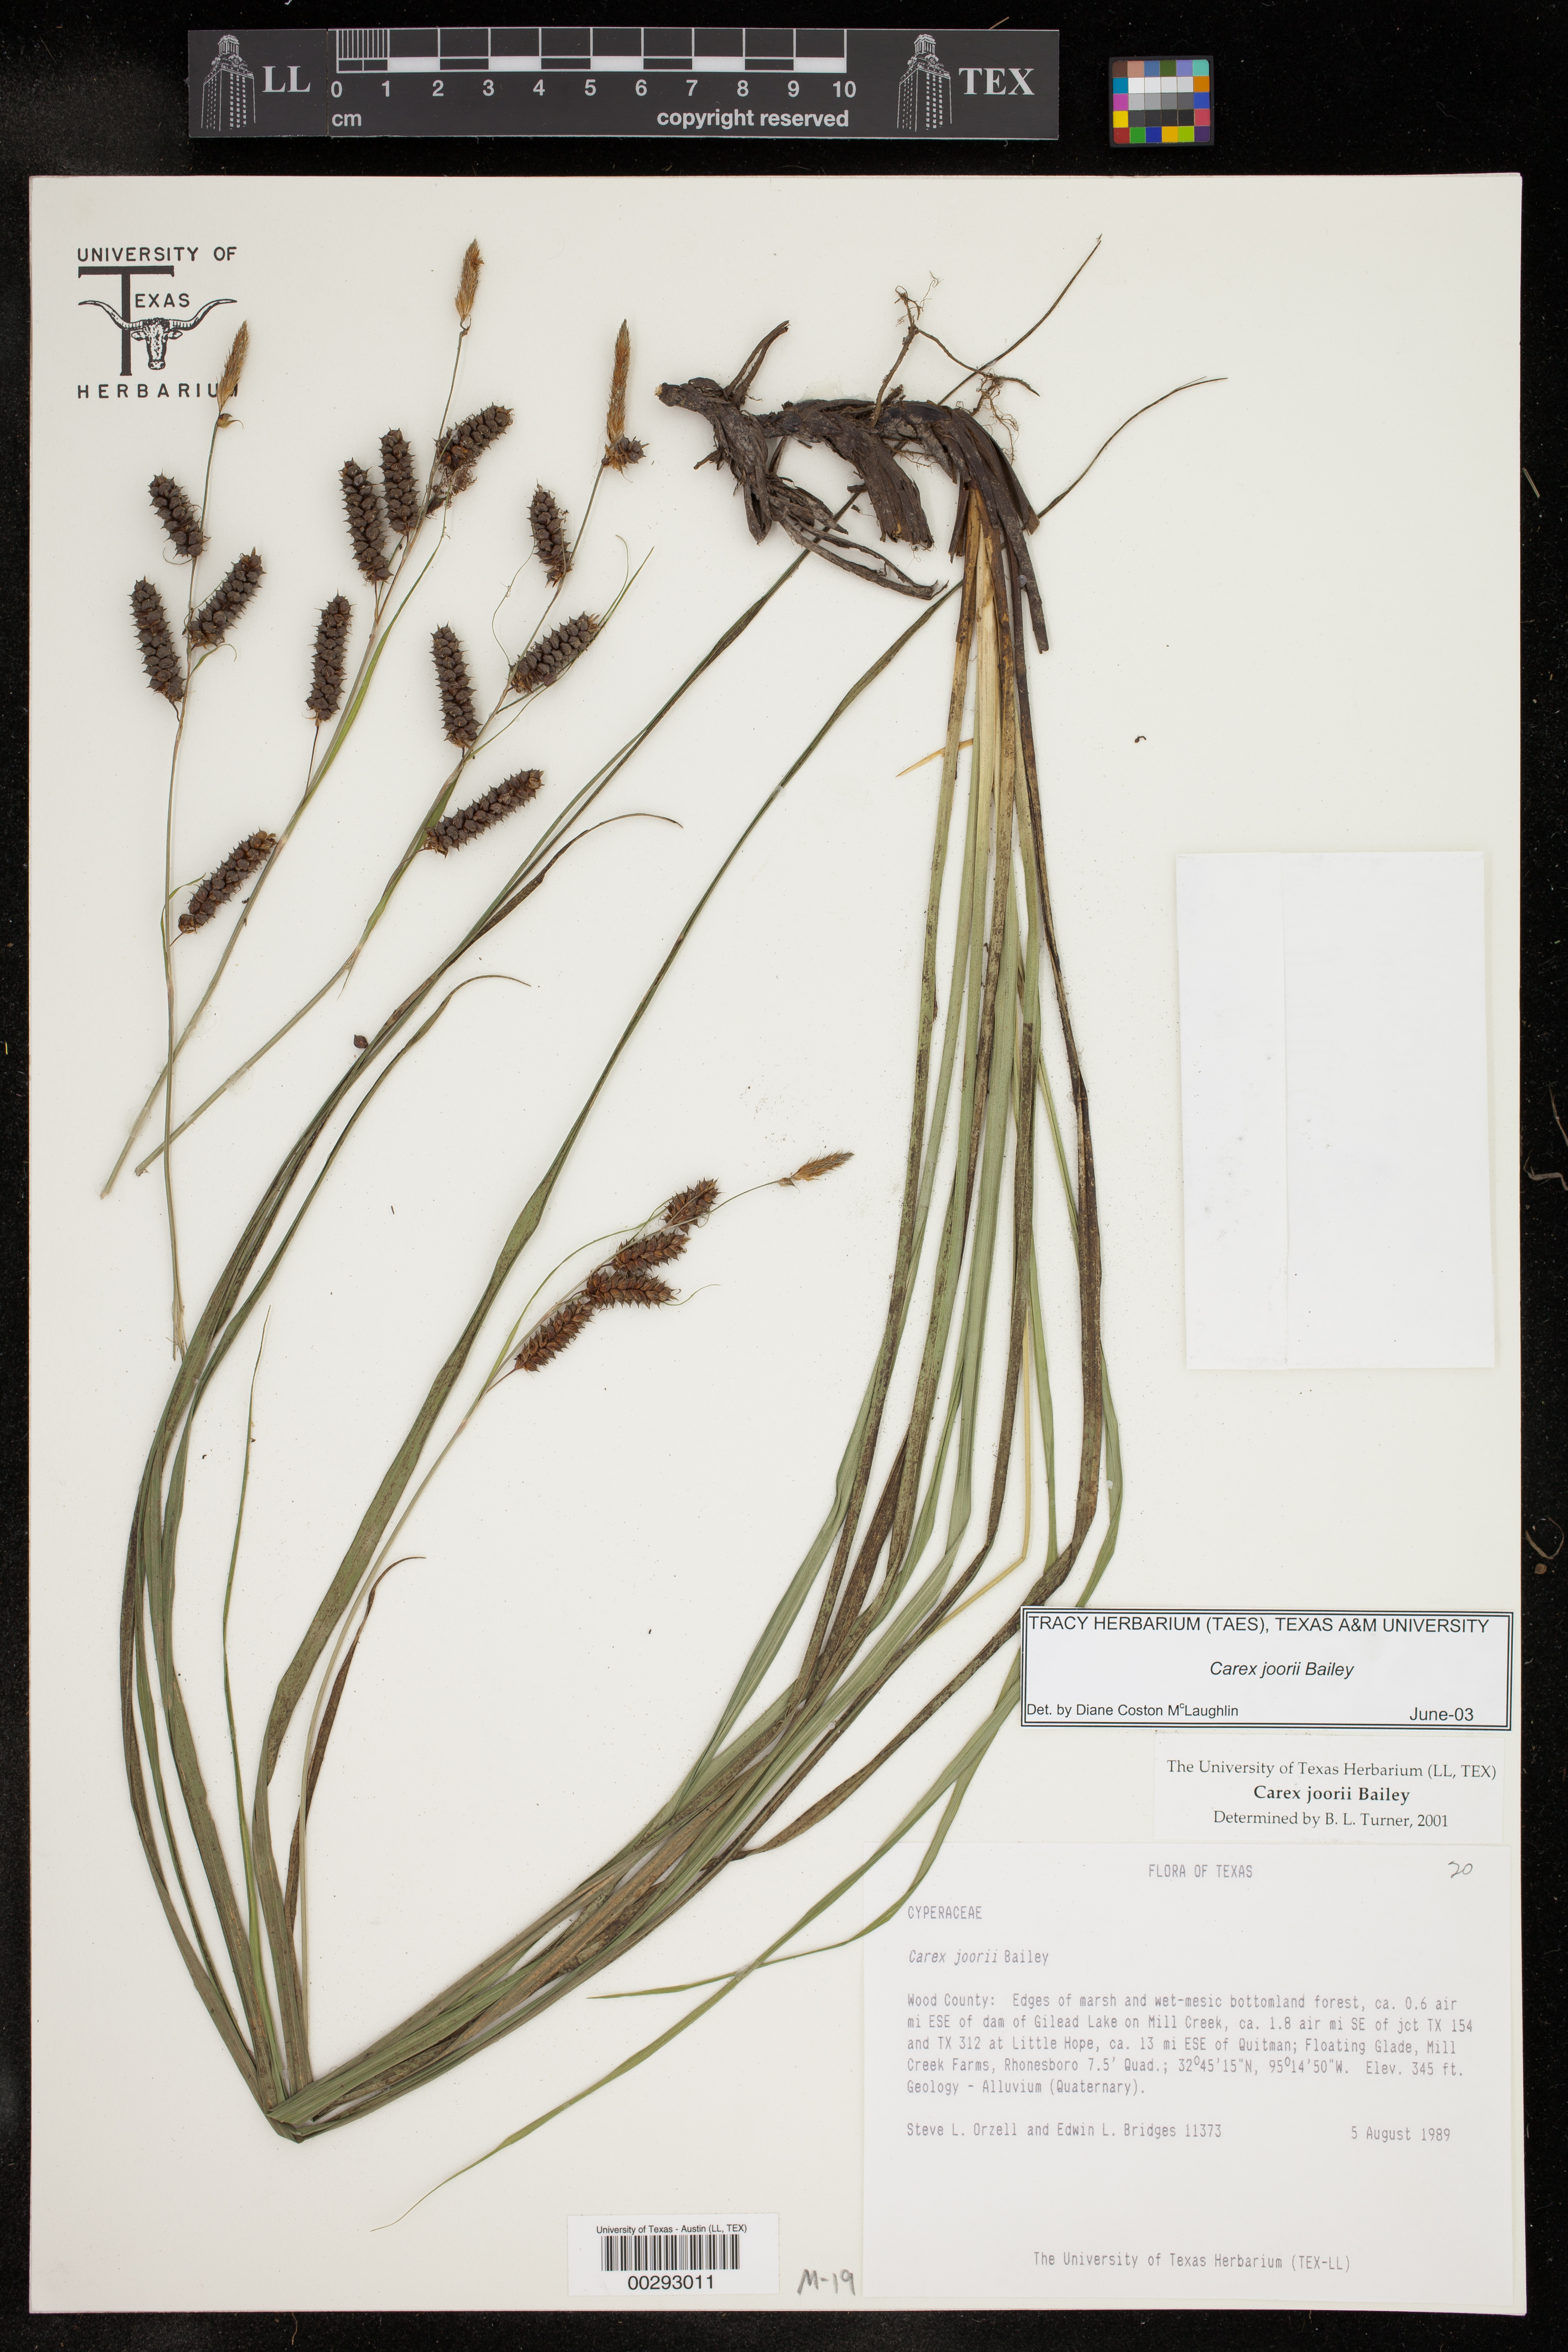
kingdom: Plantae
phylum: Tracheophyta
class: Liliopsida
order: Poales
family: Cyperaceae
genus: Carex
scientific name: Carex joorii
